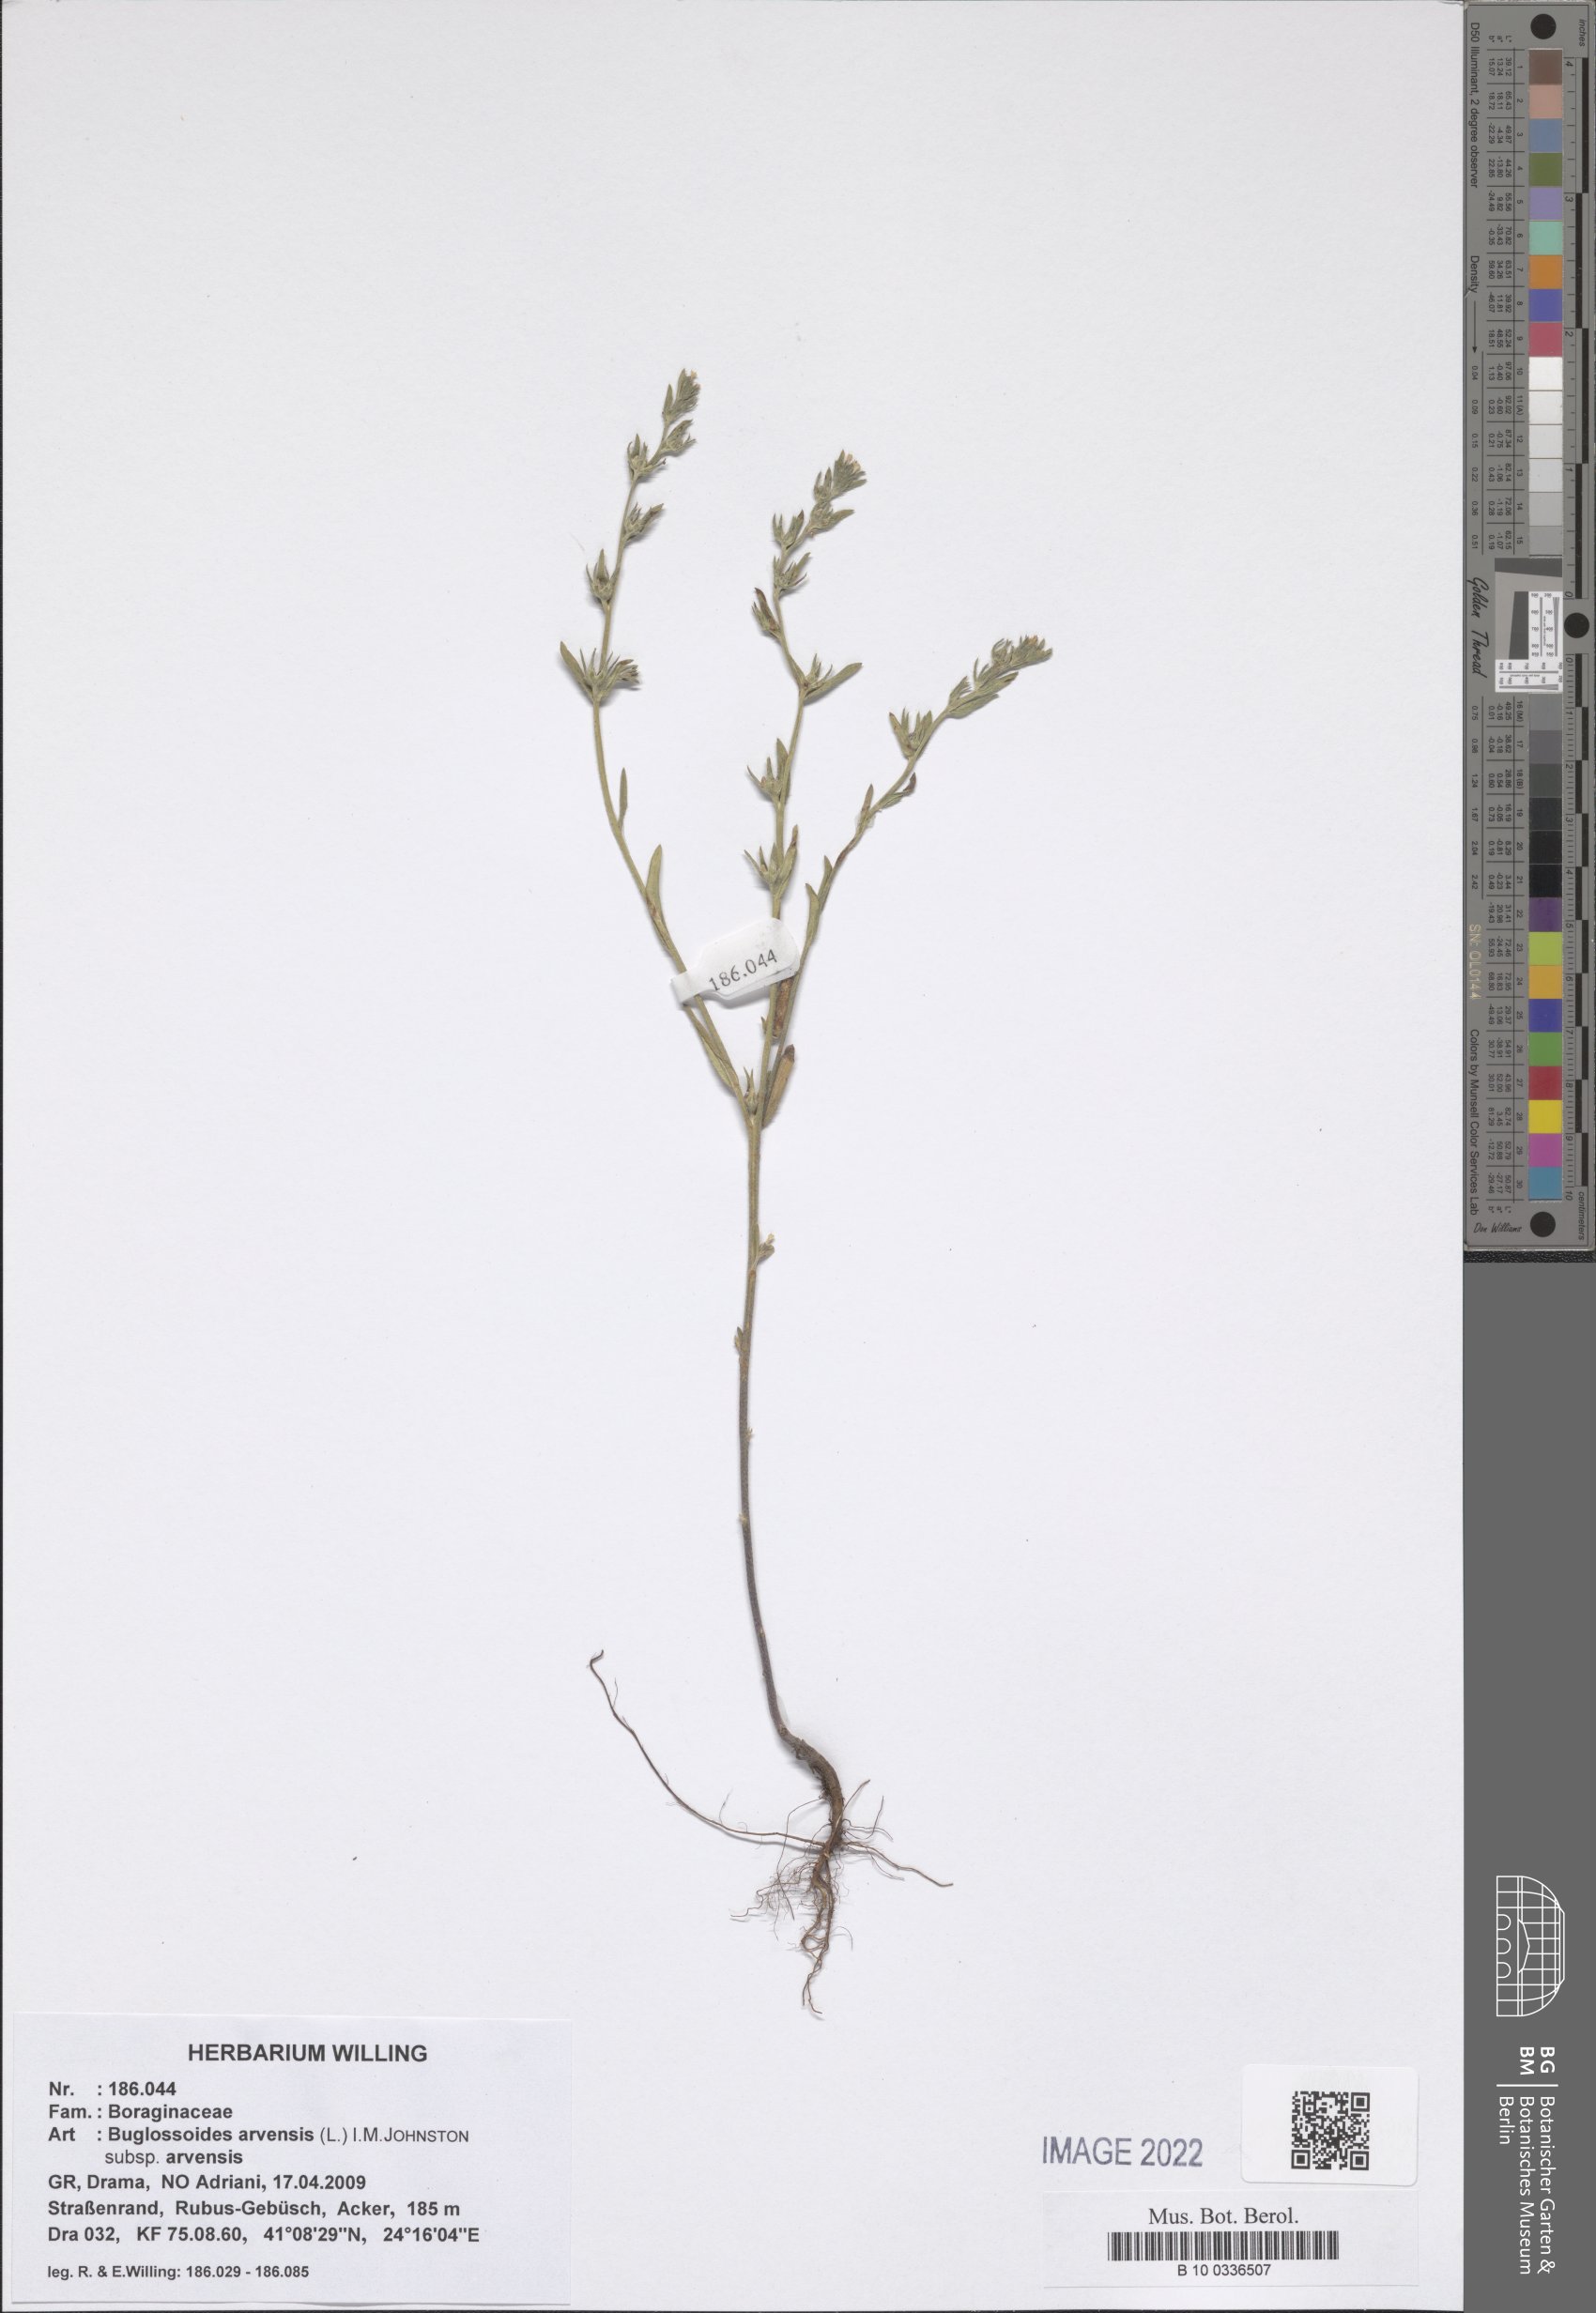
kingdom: Plantae
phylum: Tracheophyta
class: Magnoliopsida
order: Boraginales
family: Boraginaceae
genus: Buglossoides
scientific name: Buglossoides arvensis
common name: Corn gromwell
